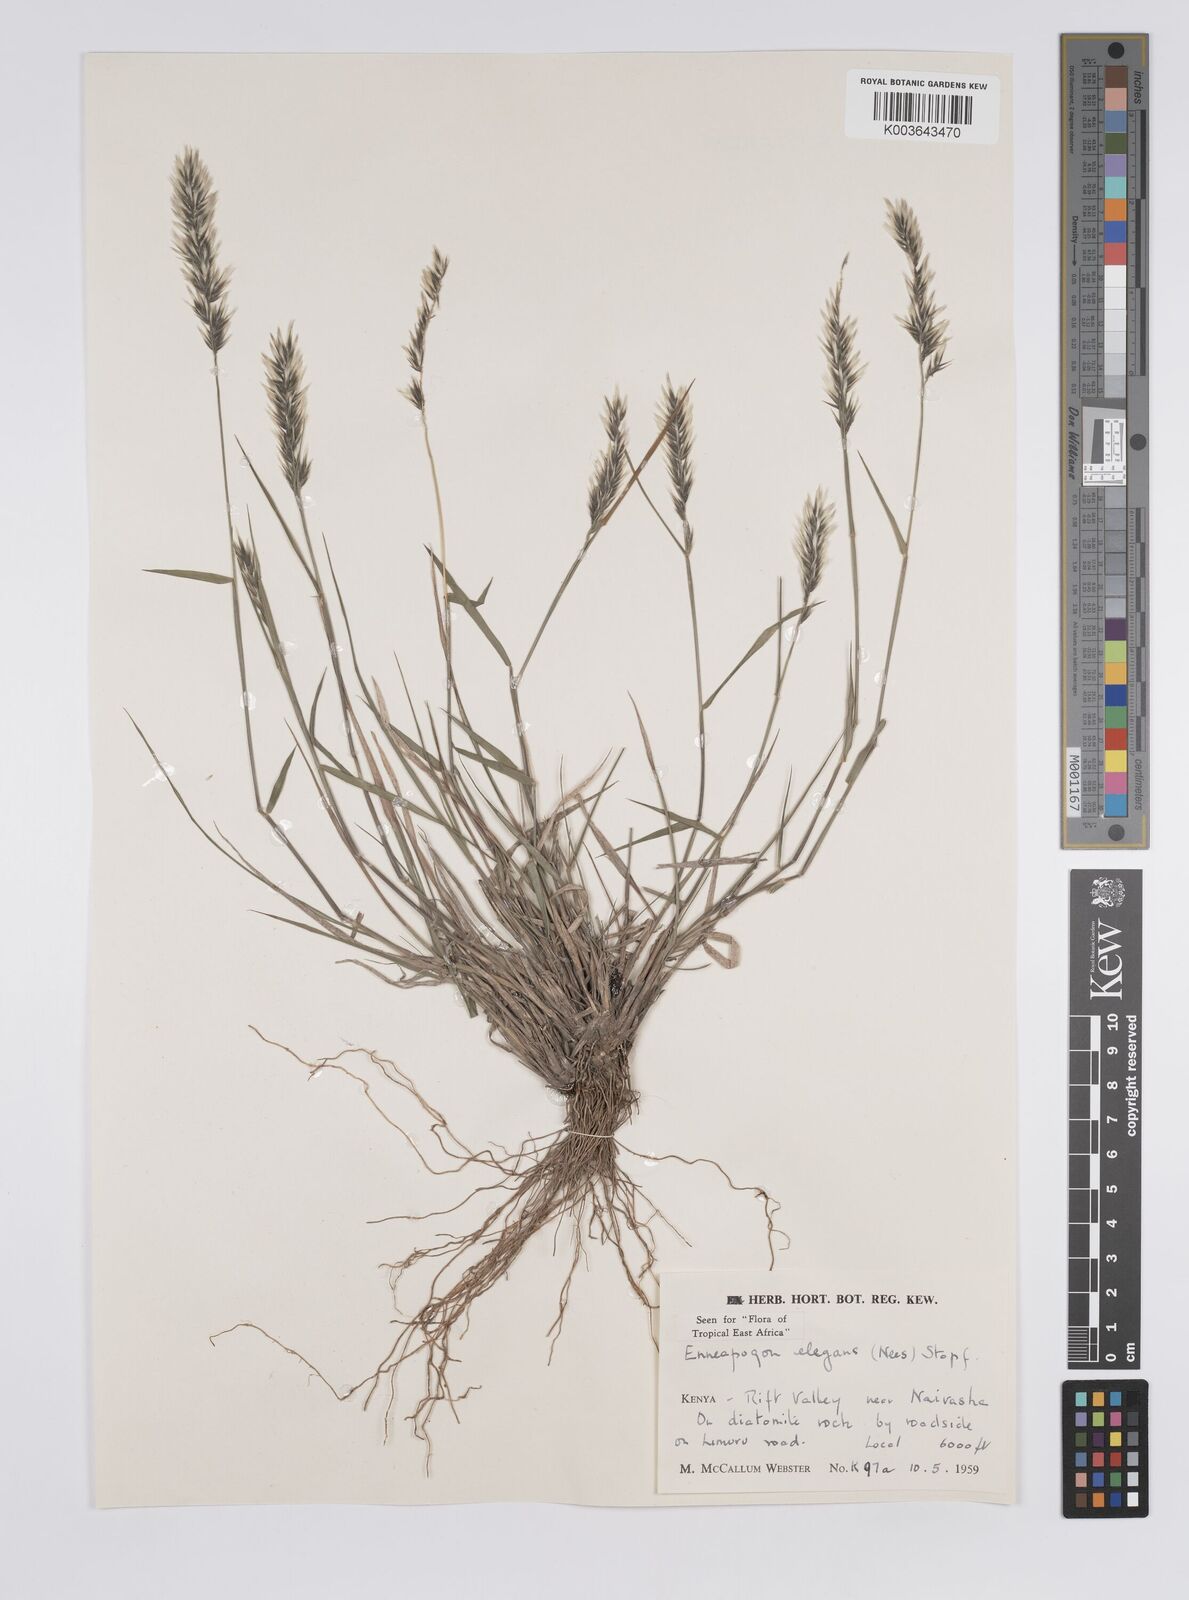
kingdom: Plantae
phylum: Tracheophyta
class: Liliopsida
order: Poales
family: Poaceae
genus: Enneapogon
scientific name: Enneapogon persicus
